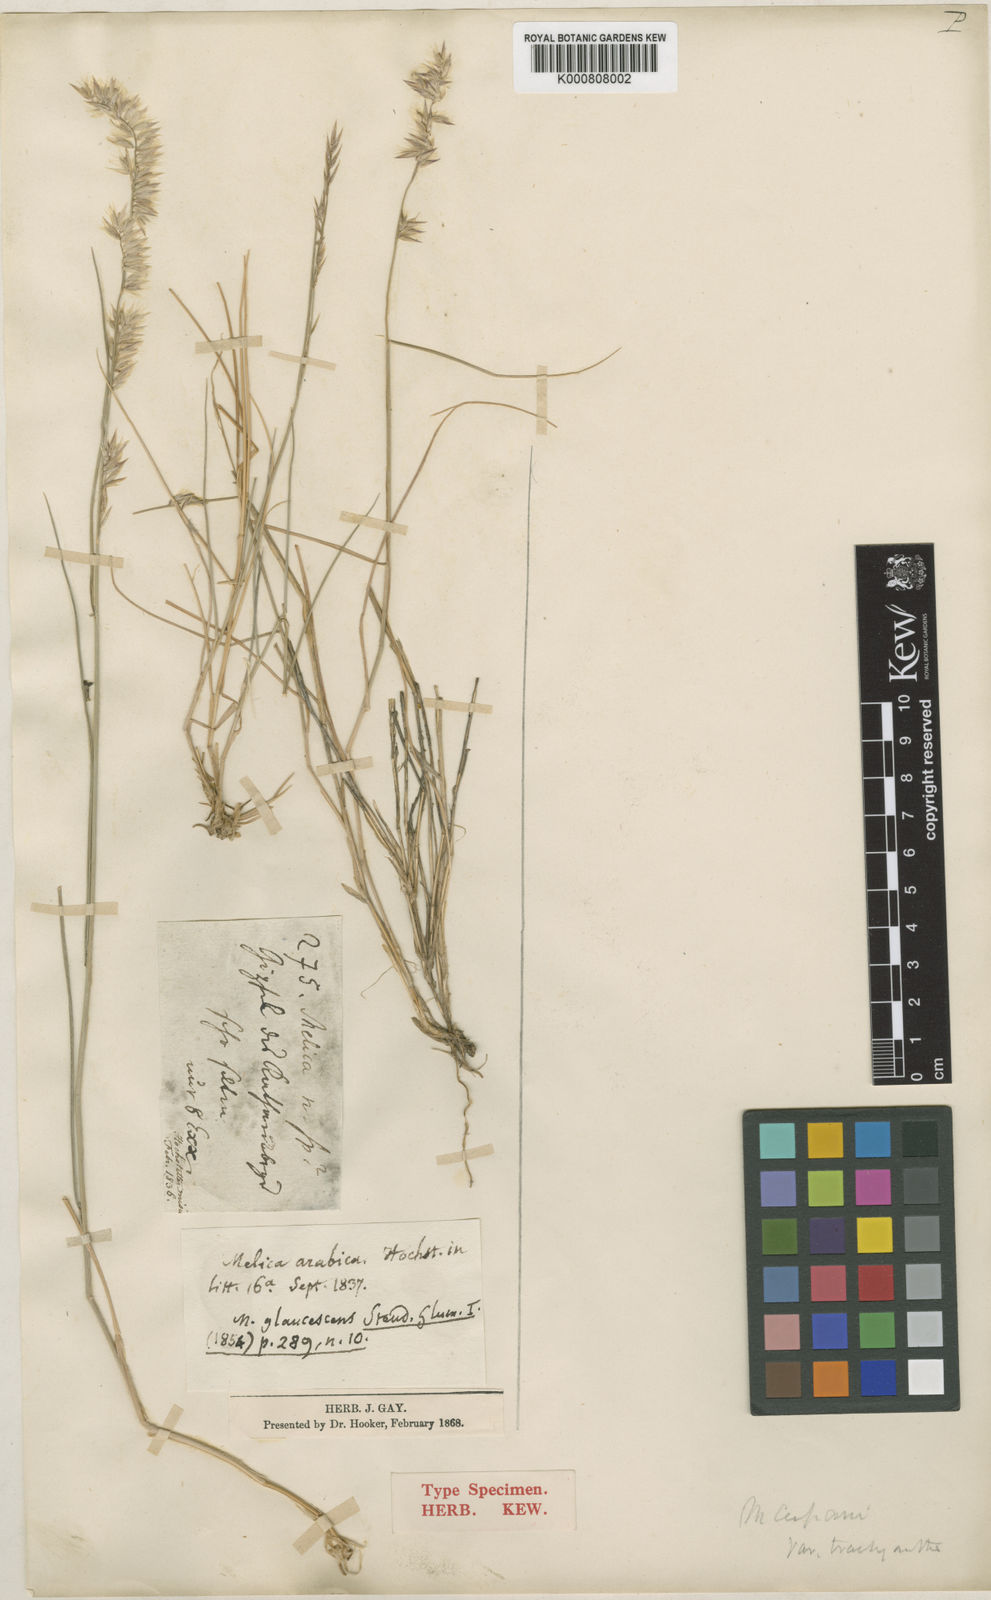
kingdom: Plantae
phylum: Tracheophyta
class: Liliopsida
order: Poales
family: Poaceae
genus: Melica
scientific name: Melica persica
